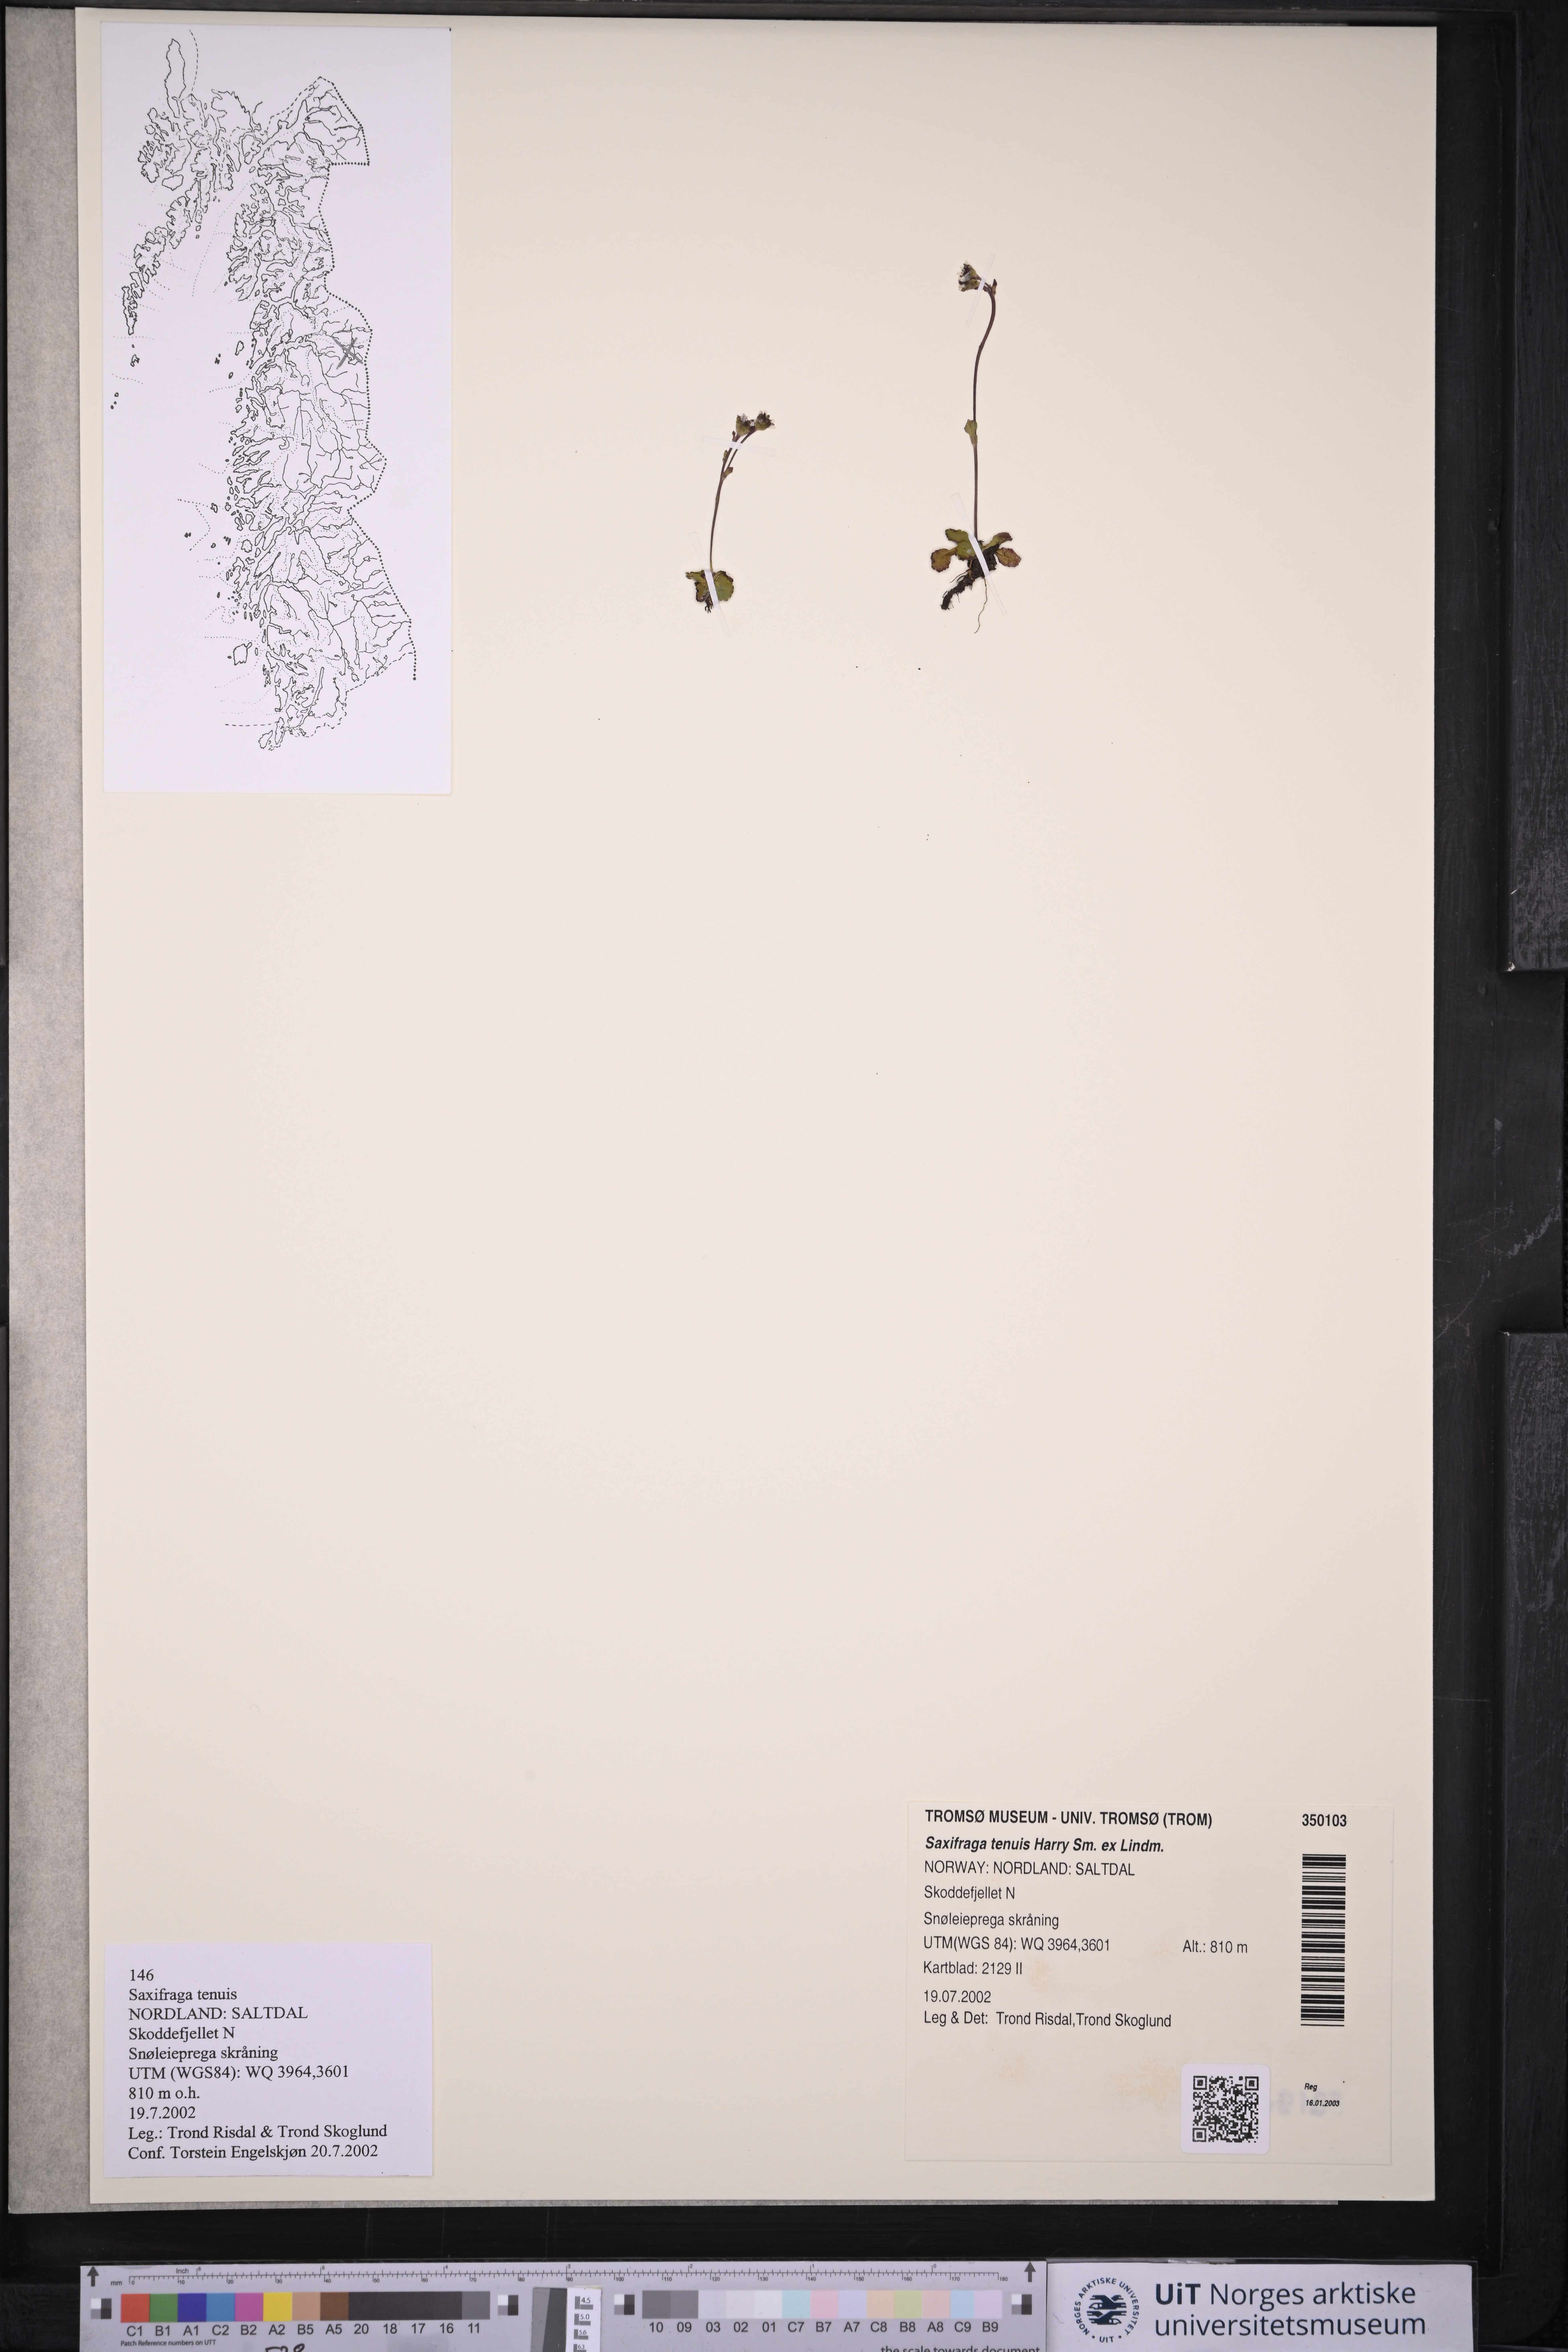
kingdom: Plantae
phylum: Tracheophyta
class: Magnoliopsida
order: Saxifragales
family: Saxifragaceae
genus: Micranthes
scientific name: Micranthes tenuis
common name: Ottertail pass saxifrage
